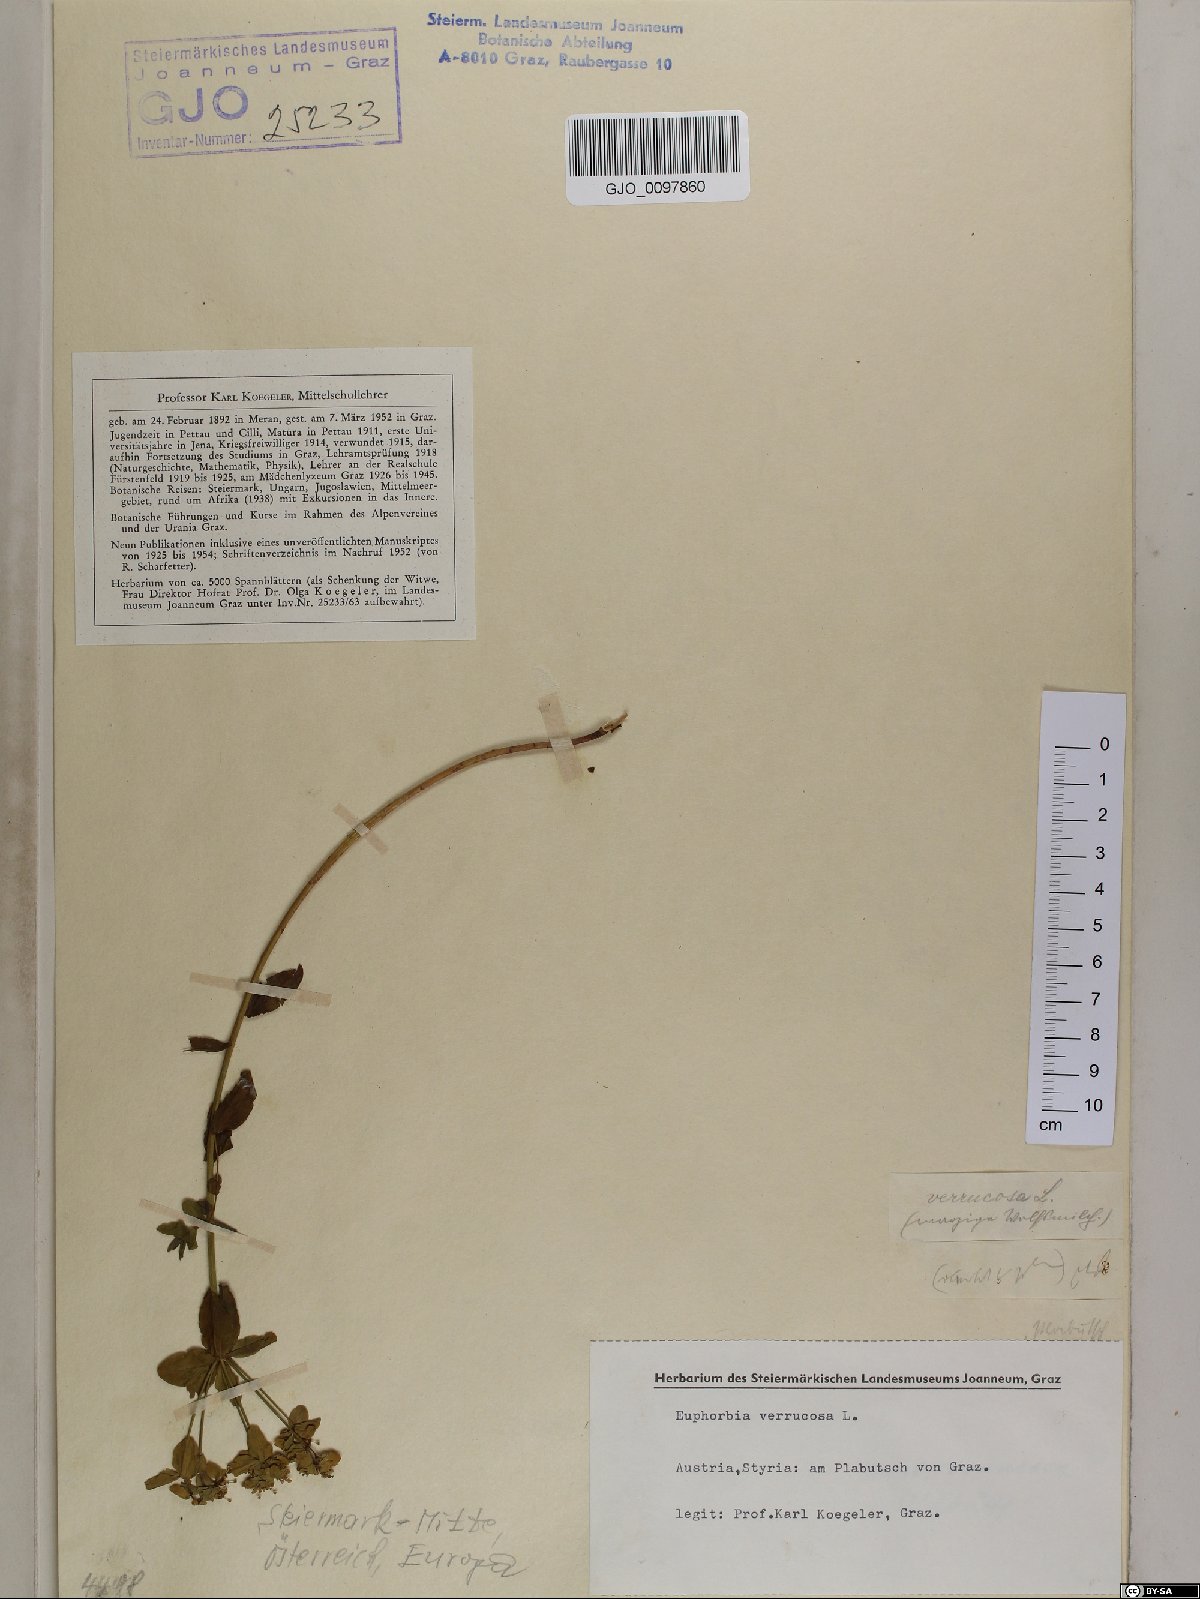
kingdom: Plantae
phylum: Tracheophyta
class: Magnoliopsida
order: Malpighiales
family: Euphorbiaceae
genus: Euphorbia
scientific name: Euphorbia verrucosa
